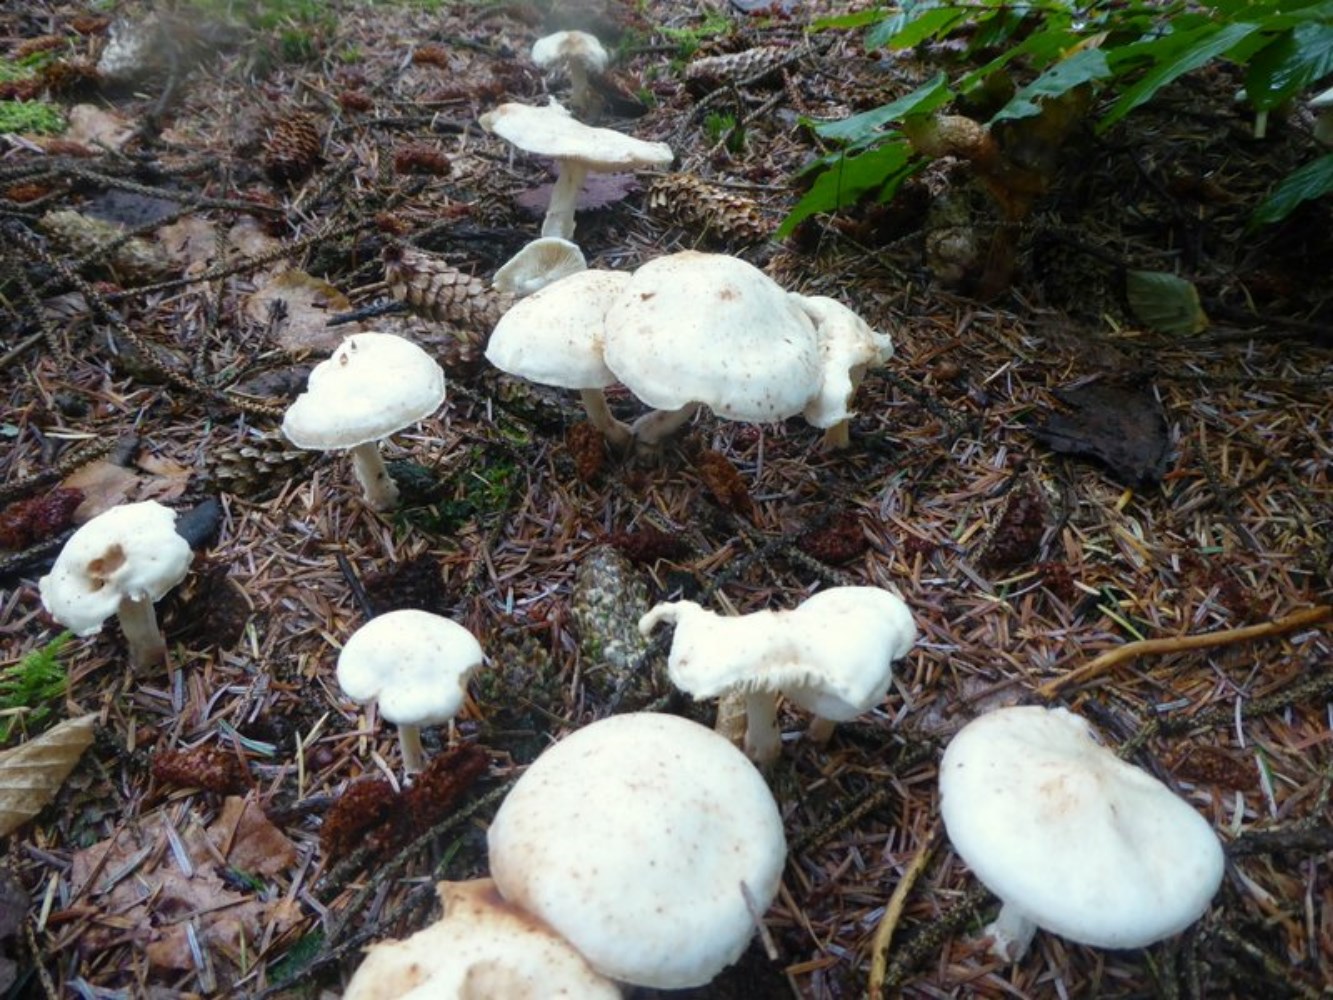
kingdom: Fungi
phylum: Basidiomycota
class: Agaricomycetes
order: Agaricales
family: Omphalotaceae
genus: Rhodocollybia
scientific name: Rhodocollybia maculata
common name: plettet fladhat
